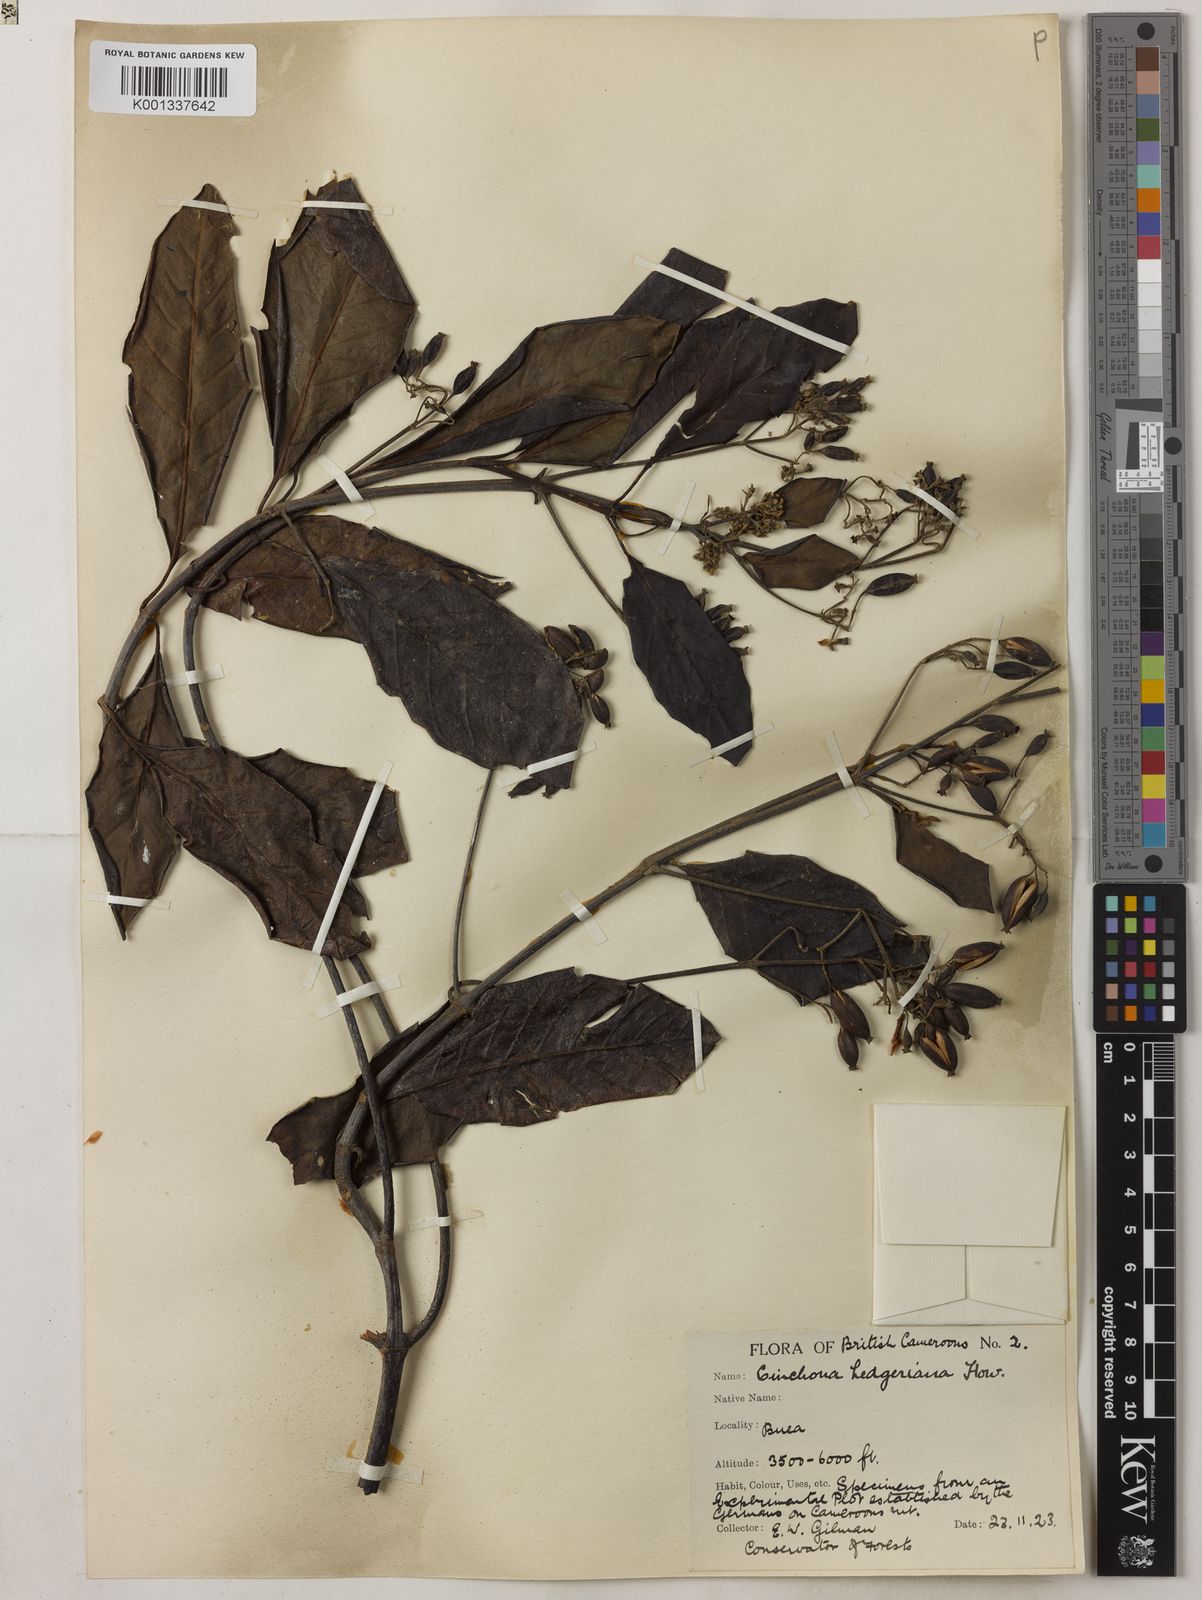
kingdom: Plantae
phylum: Tracheophyta
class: Magnoliopsida
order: Gentianales
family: Rubiaceae
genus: Cinchona
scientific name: Cinchona calisaya
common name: Ledgerbark
